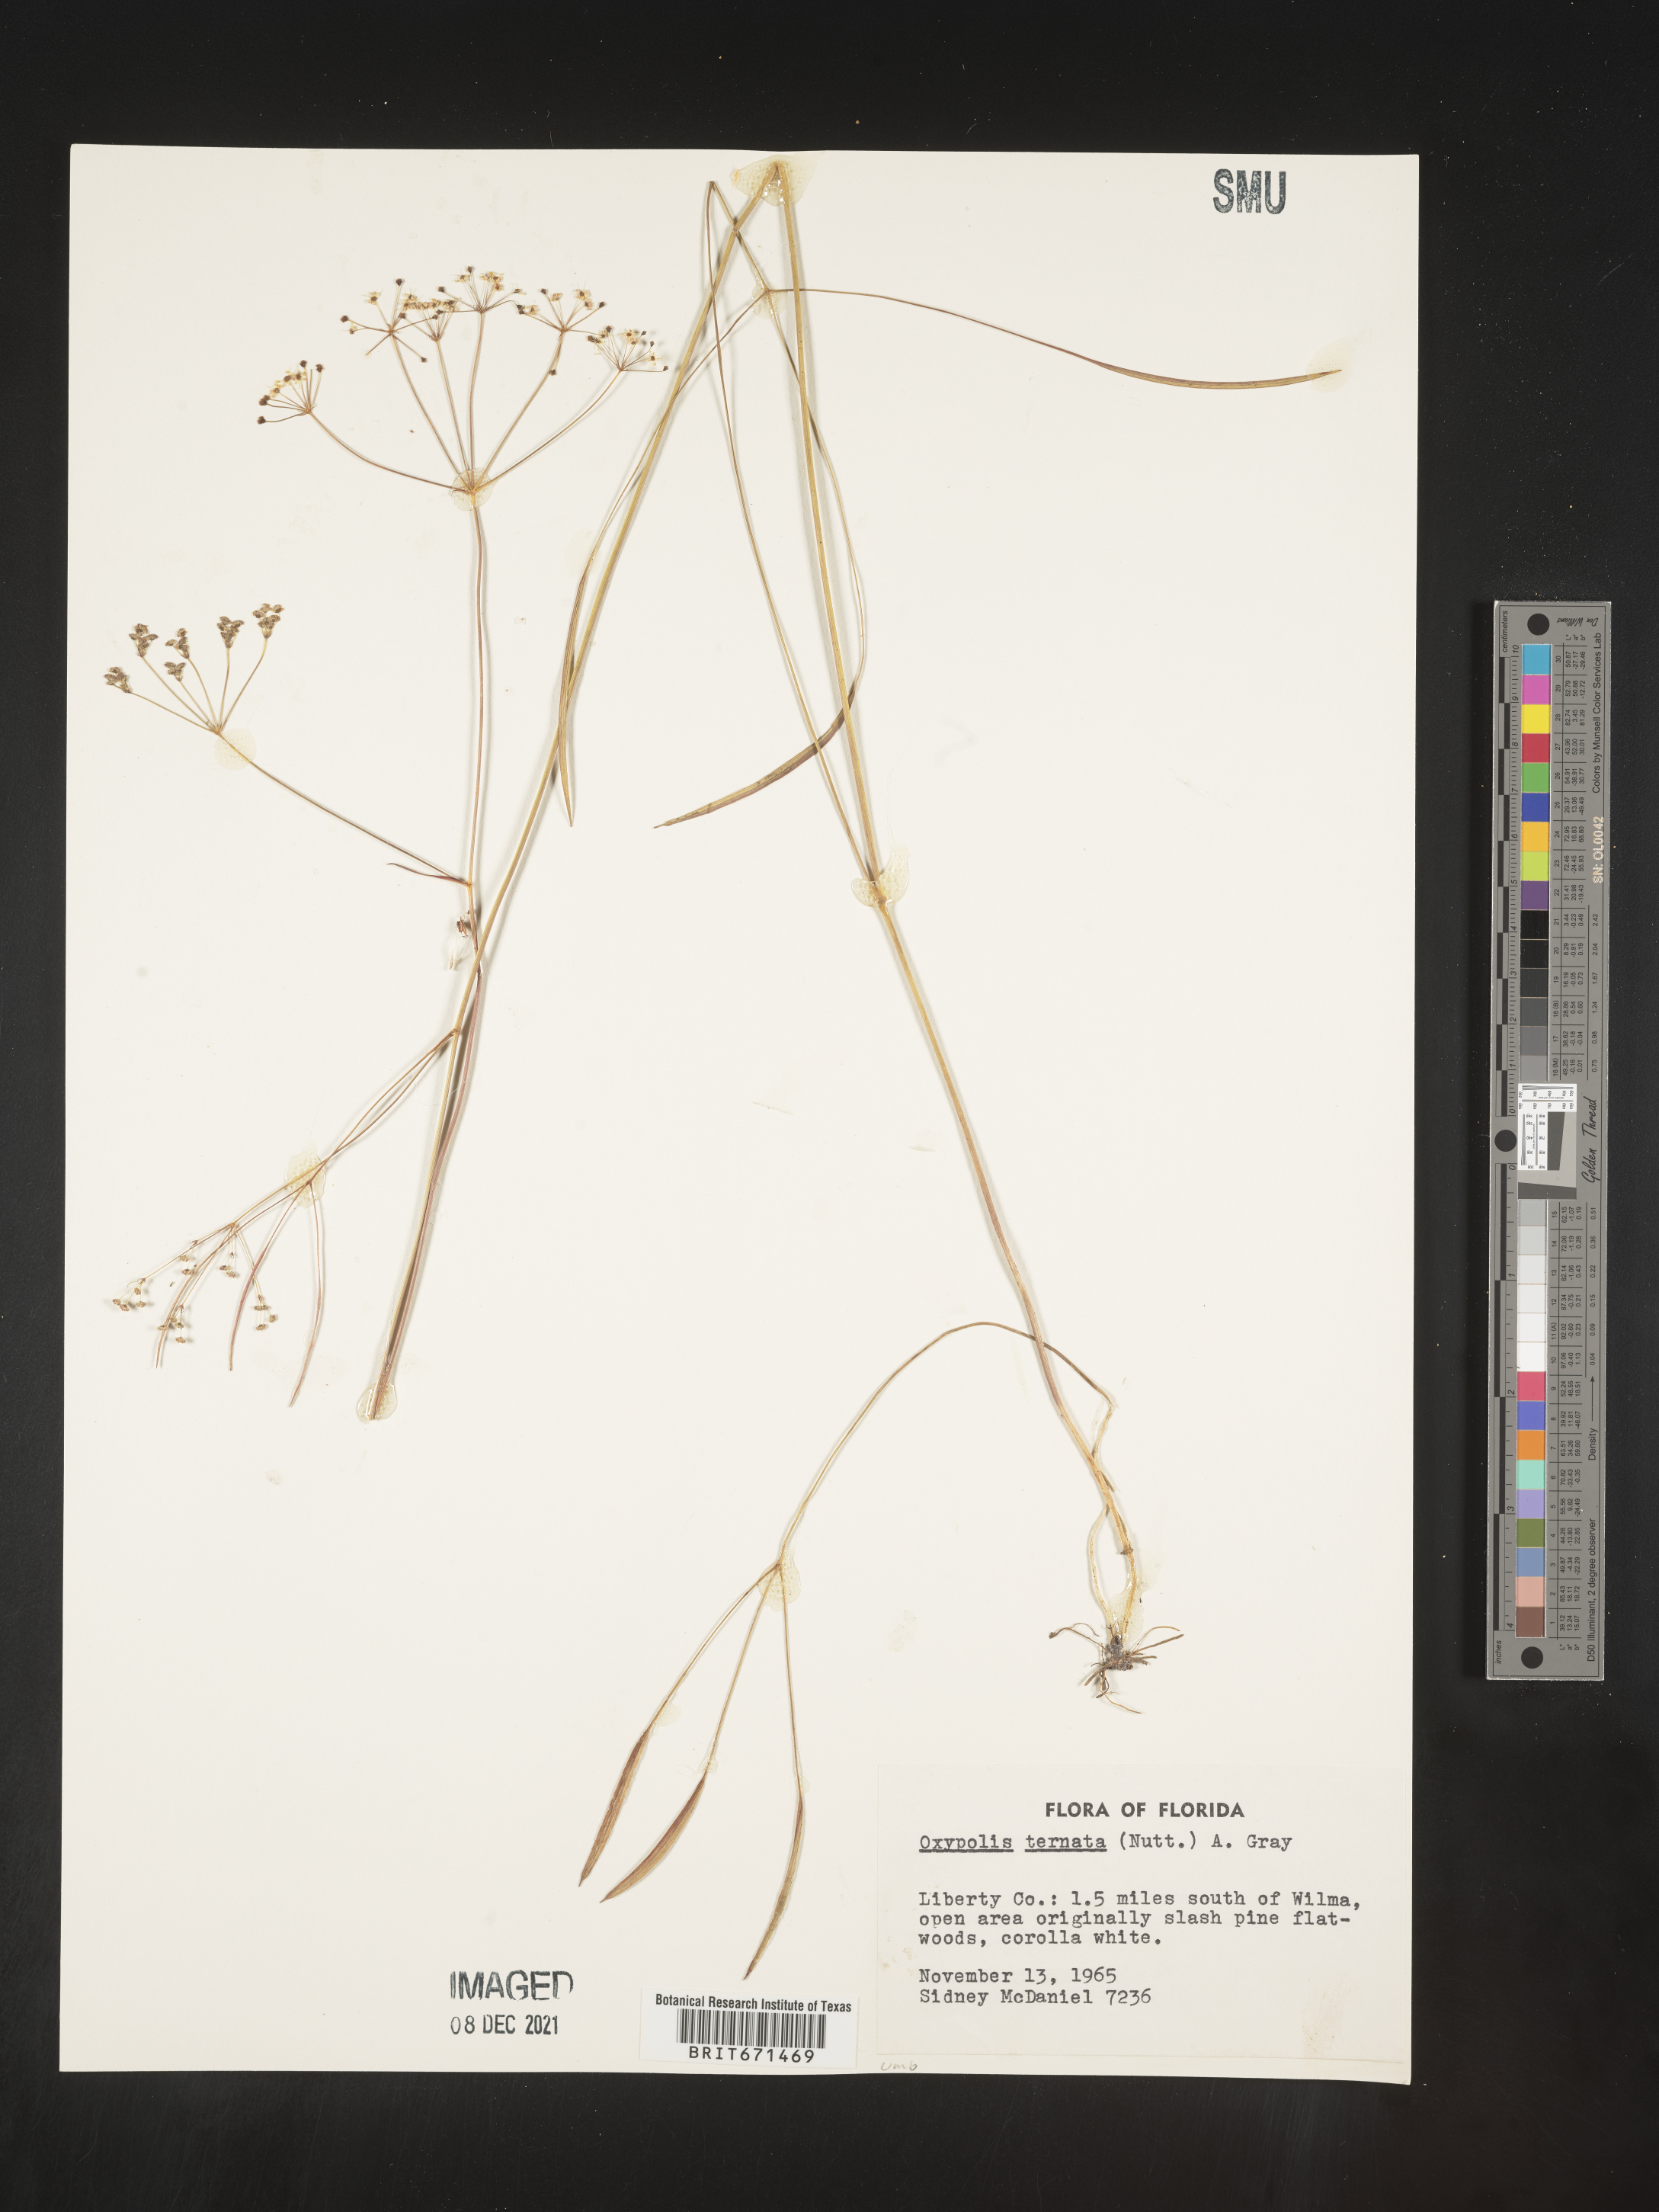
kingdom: Plantae
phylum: Tracheophyta
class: Magnoliopsida
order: Apiales
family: Apiaceae
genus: Oxypolis
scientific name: Oxypolis ternata
